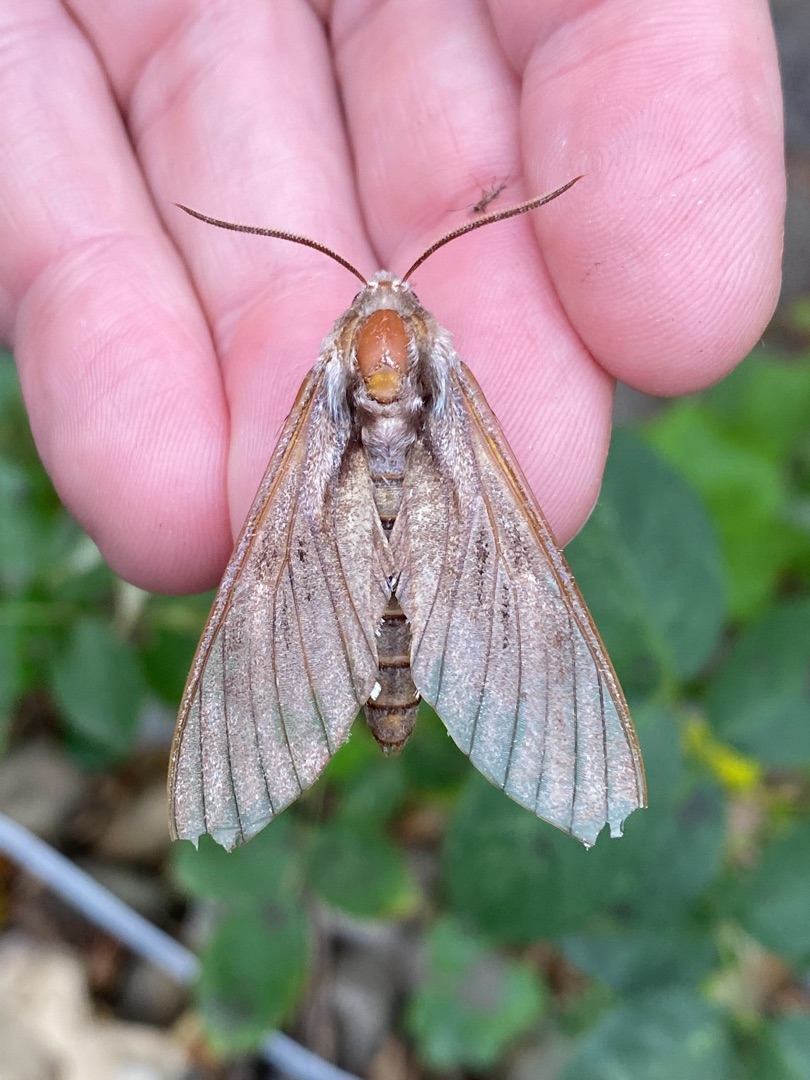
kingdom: Animalia
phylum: Arthropoda
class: Insecta
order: Lepidoptera
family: Sphingidae
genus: Sphinx
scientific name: Sphinx pinastri
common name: Fyrresværmer
